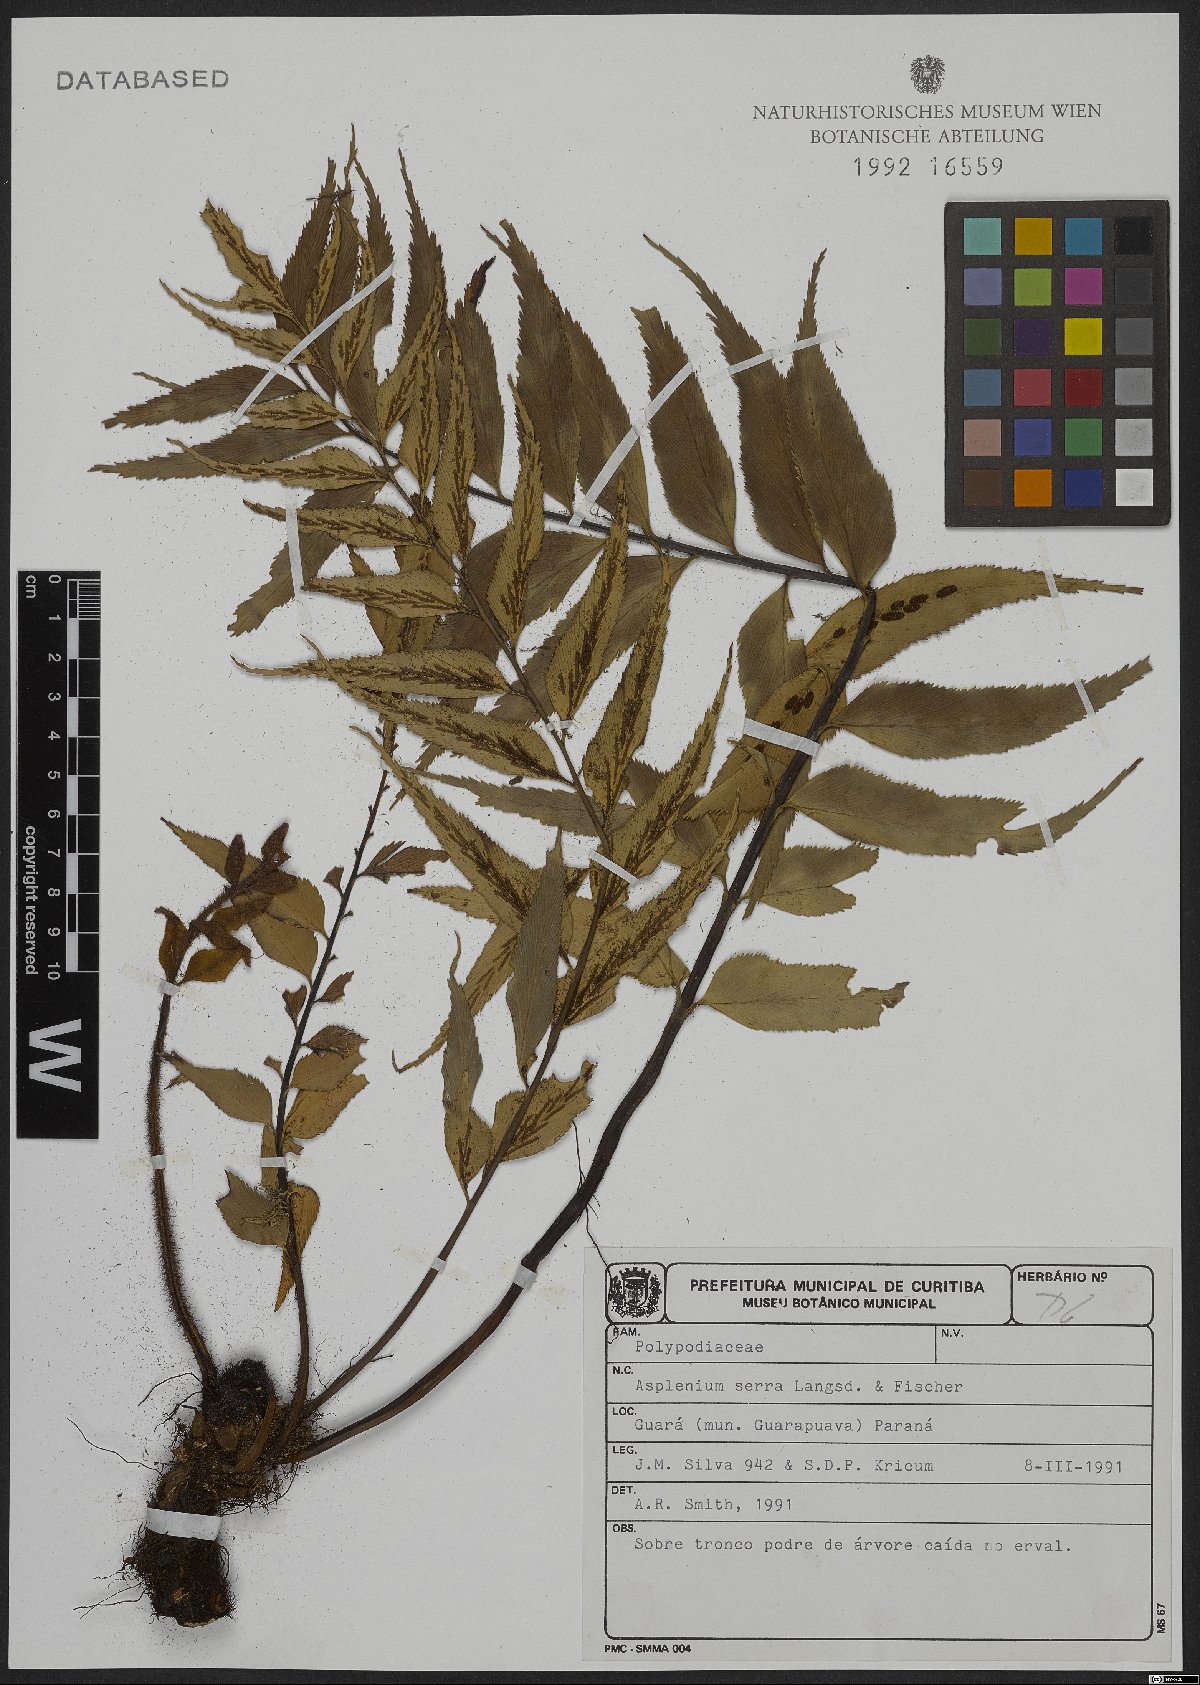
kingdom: Plantae
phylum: Tracheophyta
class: Polypodiopsida
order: Polypodiales
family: Aspleniaceae
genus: Asplenium
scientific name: Asplenium serra
